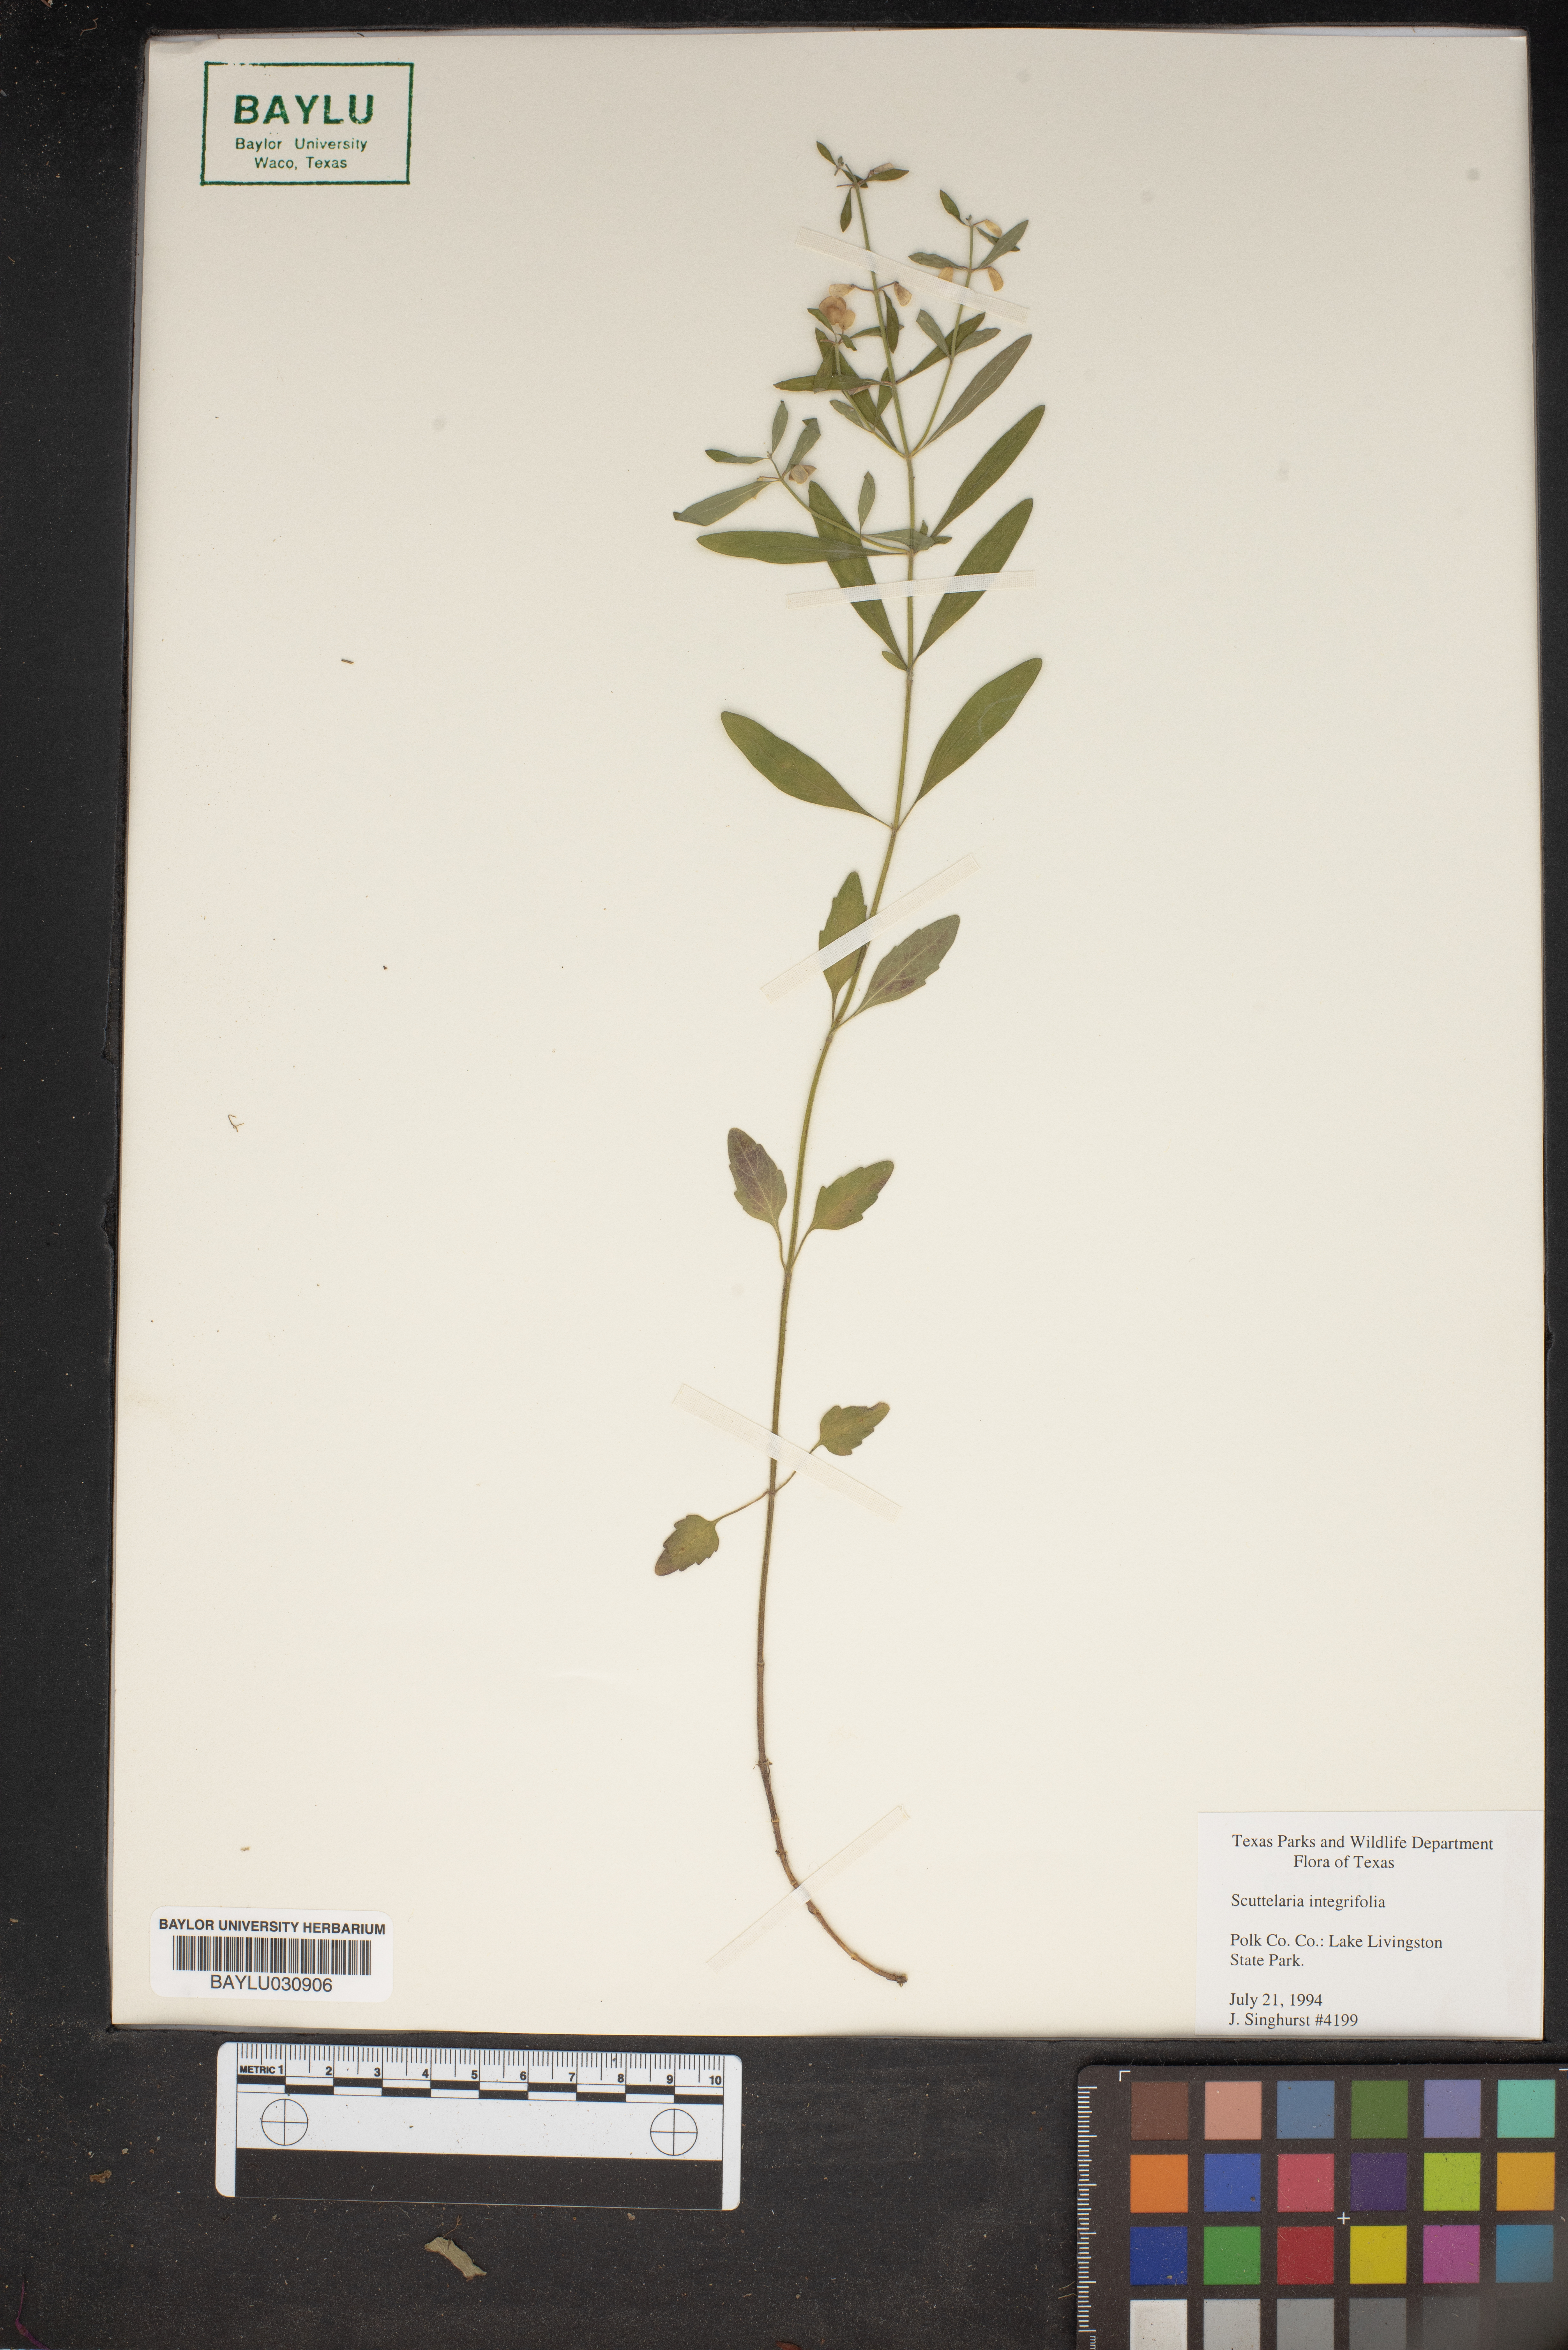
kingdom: Plantae
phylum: Tracheophyta
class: Magnoliopsida
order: Lamiales
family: Lamiaceae
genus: Scutellaria
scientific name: Scutellaria integrifolia
